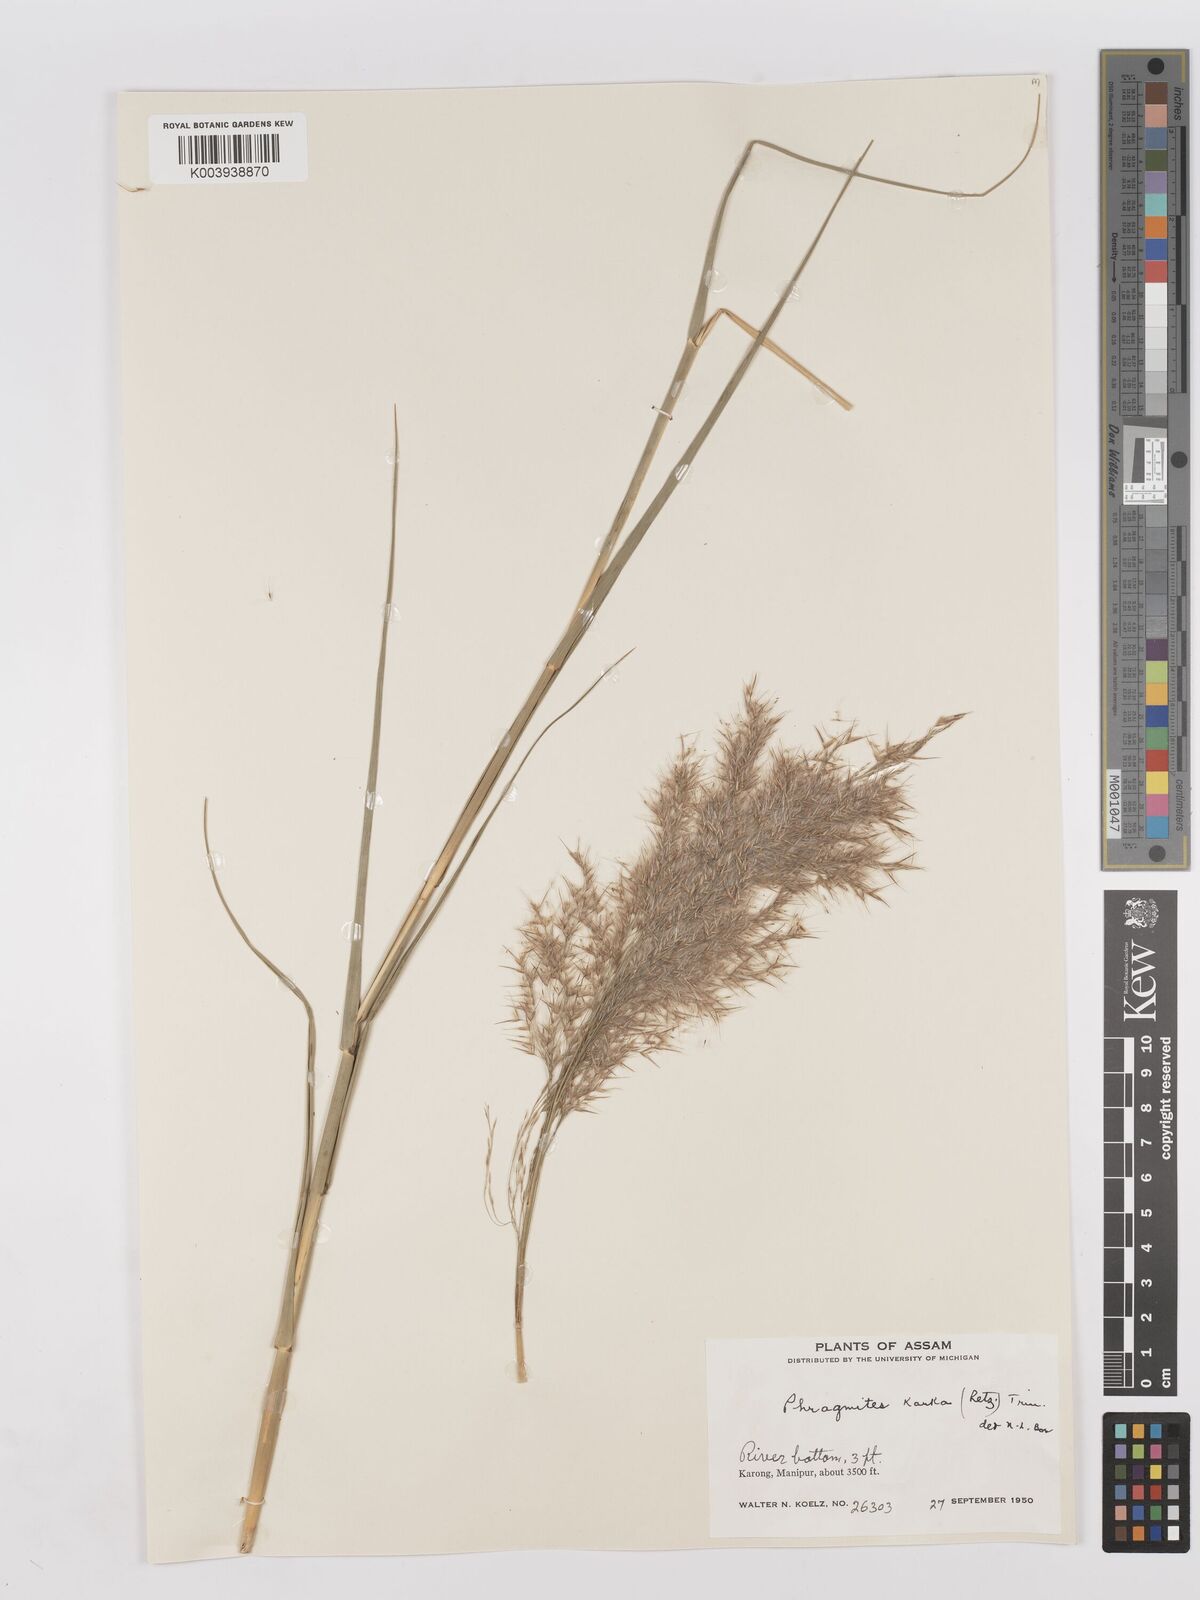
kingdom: Plantae
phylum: Tracheophyta
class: Liliopsida
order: Poales
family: Poaceae
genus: Phragmites
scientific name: Phragmites karka
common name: Tropical reed
